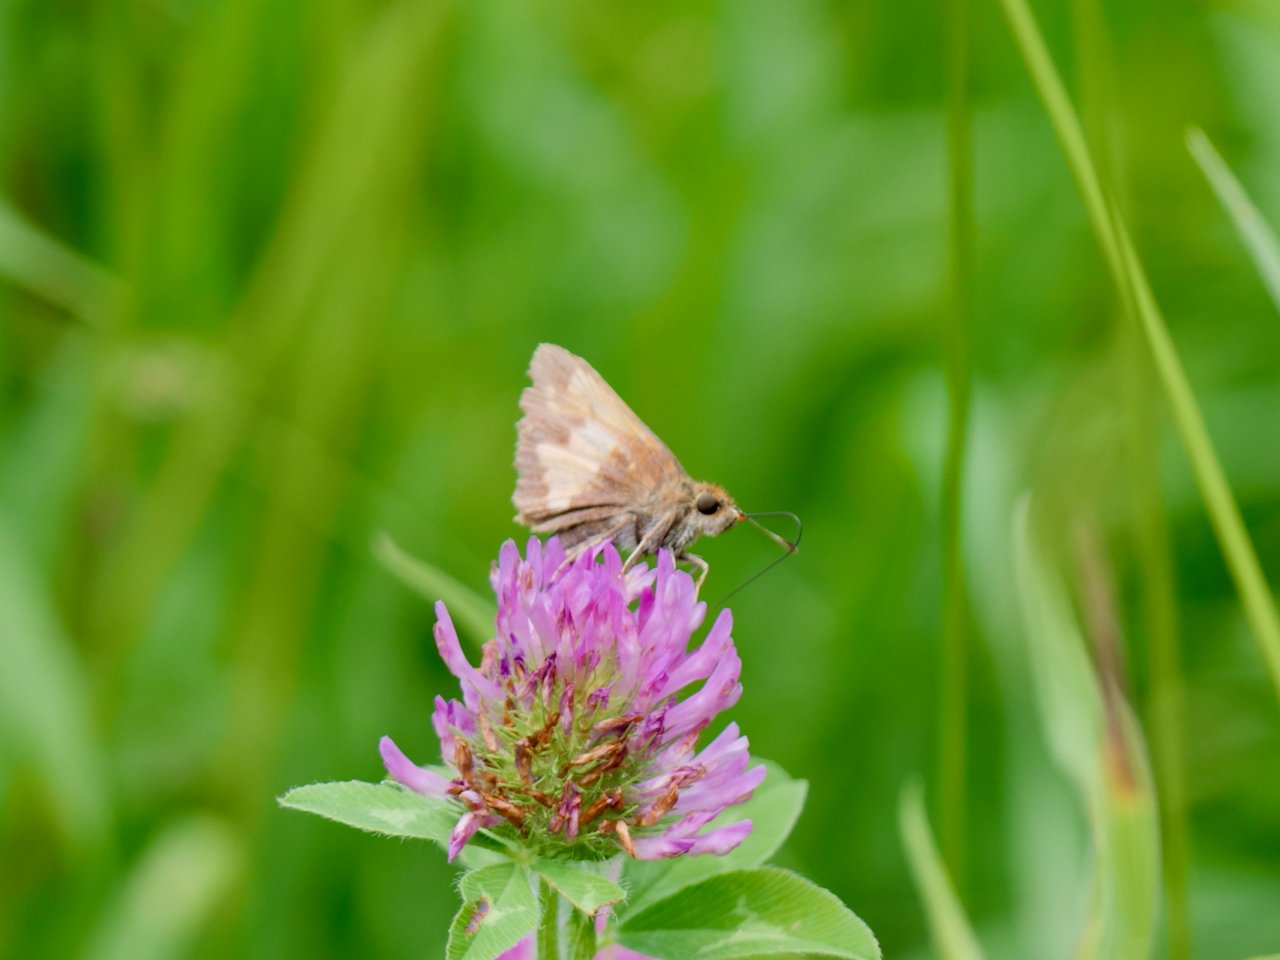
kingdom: Animalia
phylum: Arthropoda
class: Insecta
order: Lepidoptera
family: Hesperiidae
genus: Lon
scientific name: Lon hobomok
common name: Hobomok Skipper
